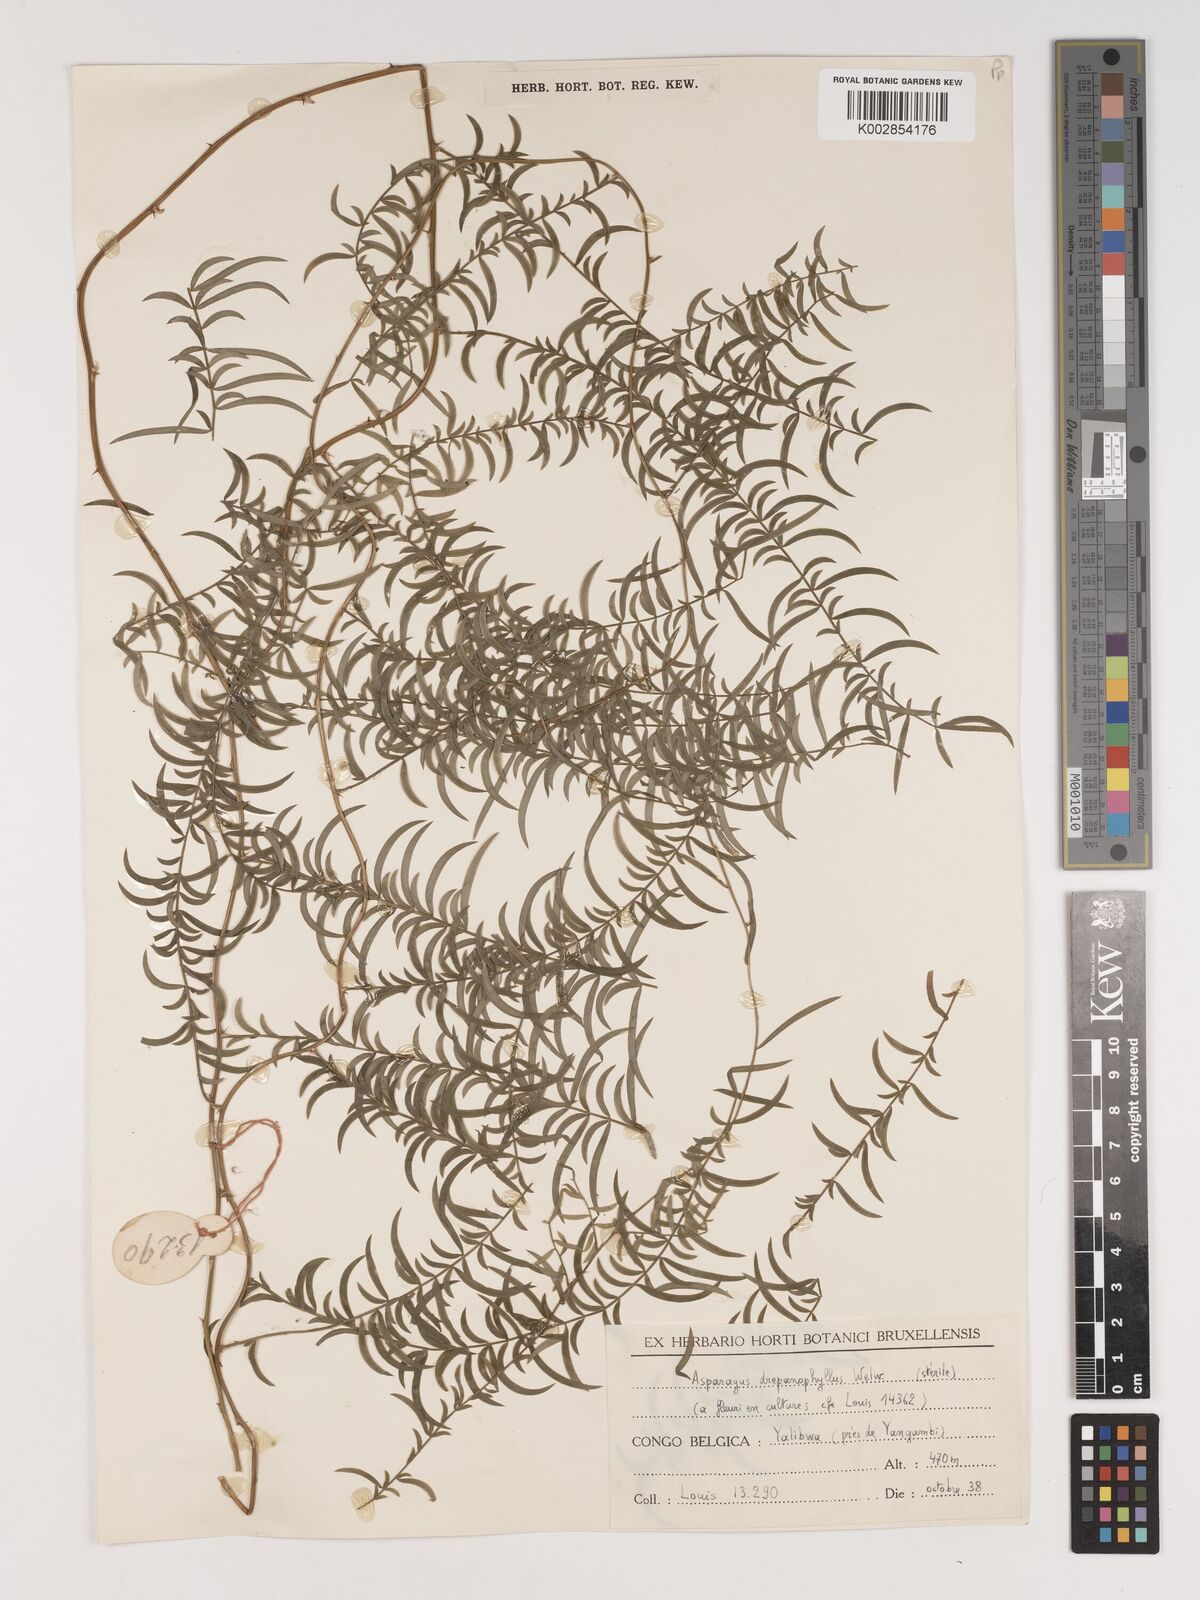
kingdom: Plantae
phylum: Tracheophyta
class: Liliopsida
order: Asparagales
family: Asparagaceae
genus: Asparagus
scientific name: Asparagus drepanophyllus
